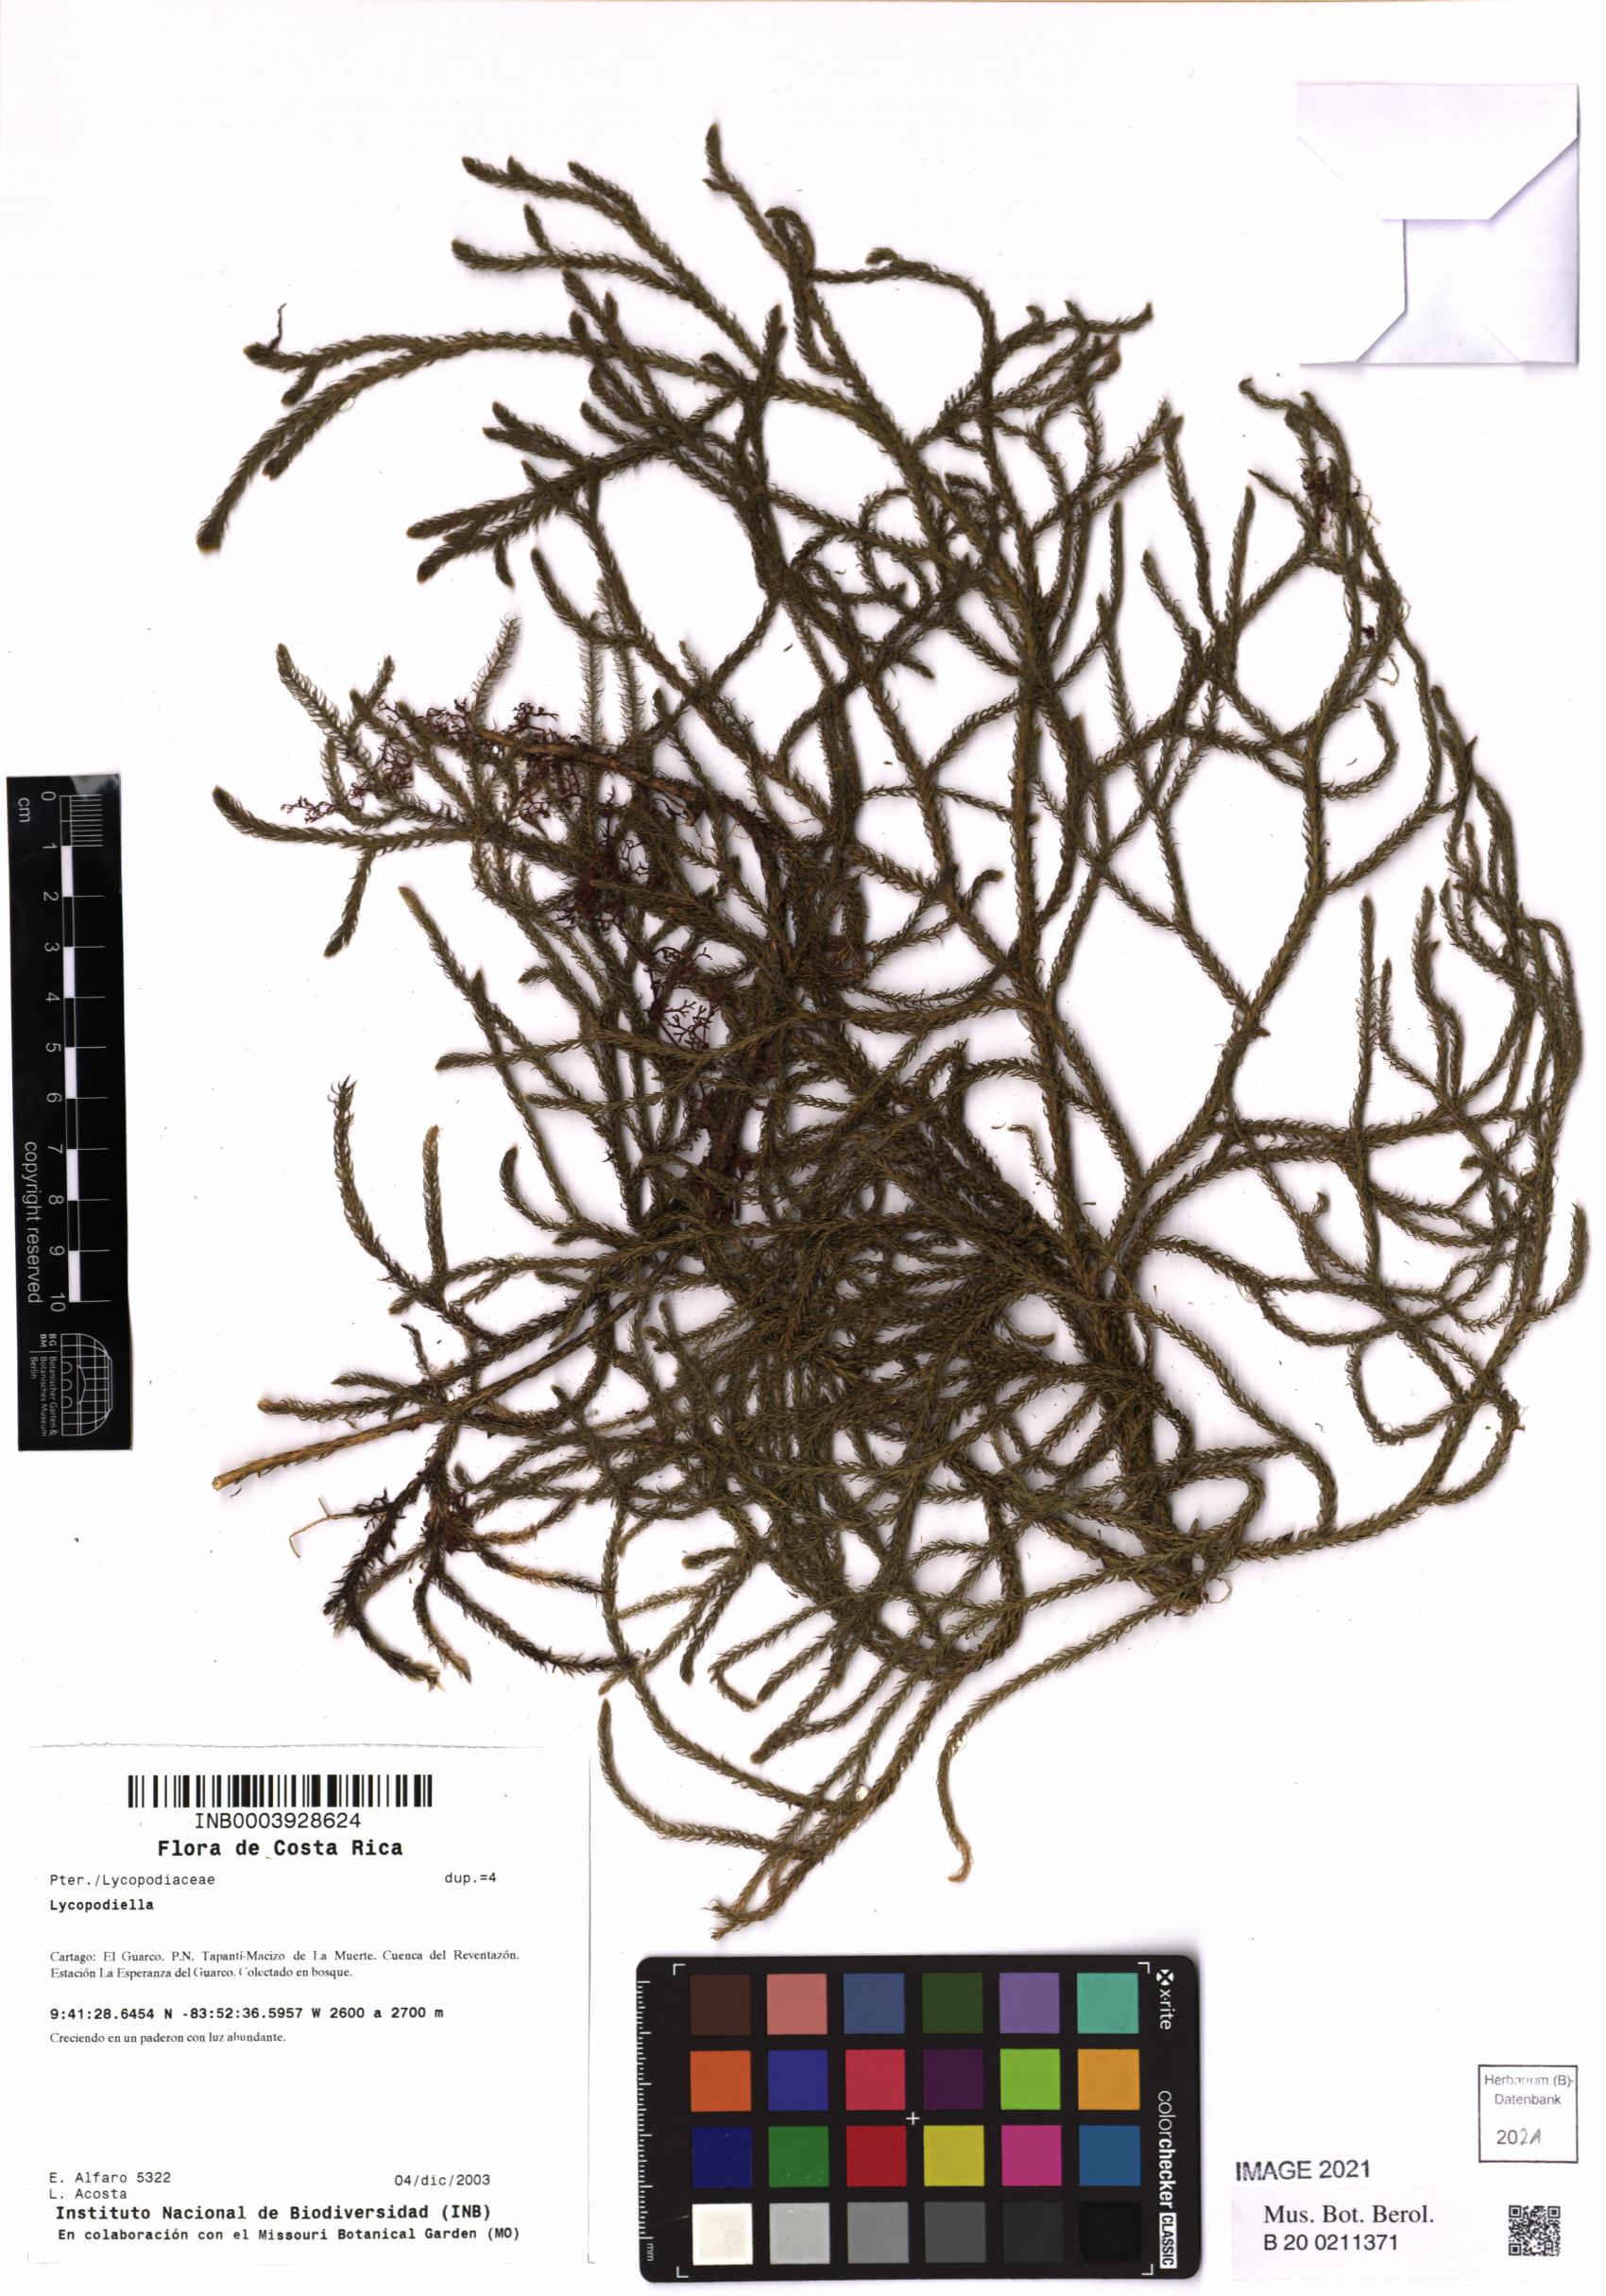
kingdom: Plantae
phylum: Tracheophyta
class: Lycopodiopsida
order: Lycopodiales
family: Lycopodiaceae
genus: Lycopodiella
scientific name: Lycopodiella
